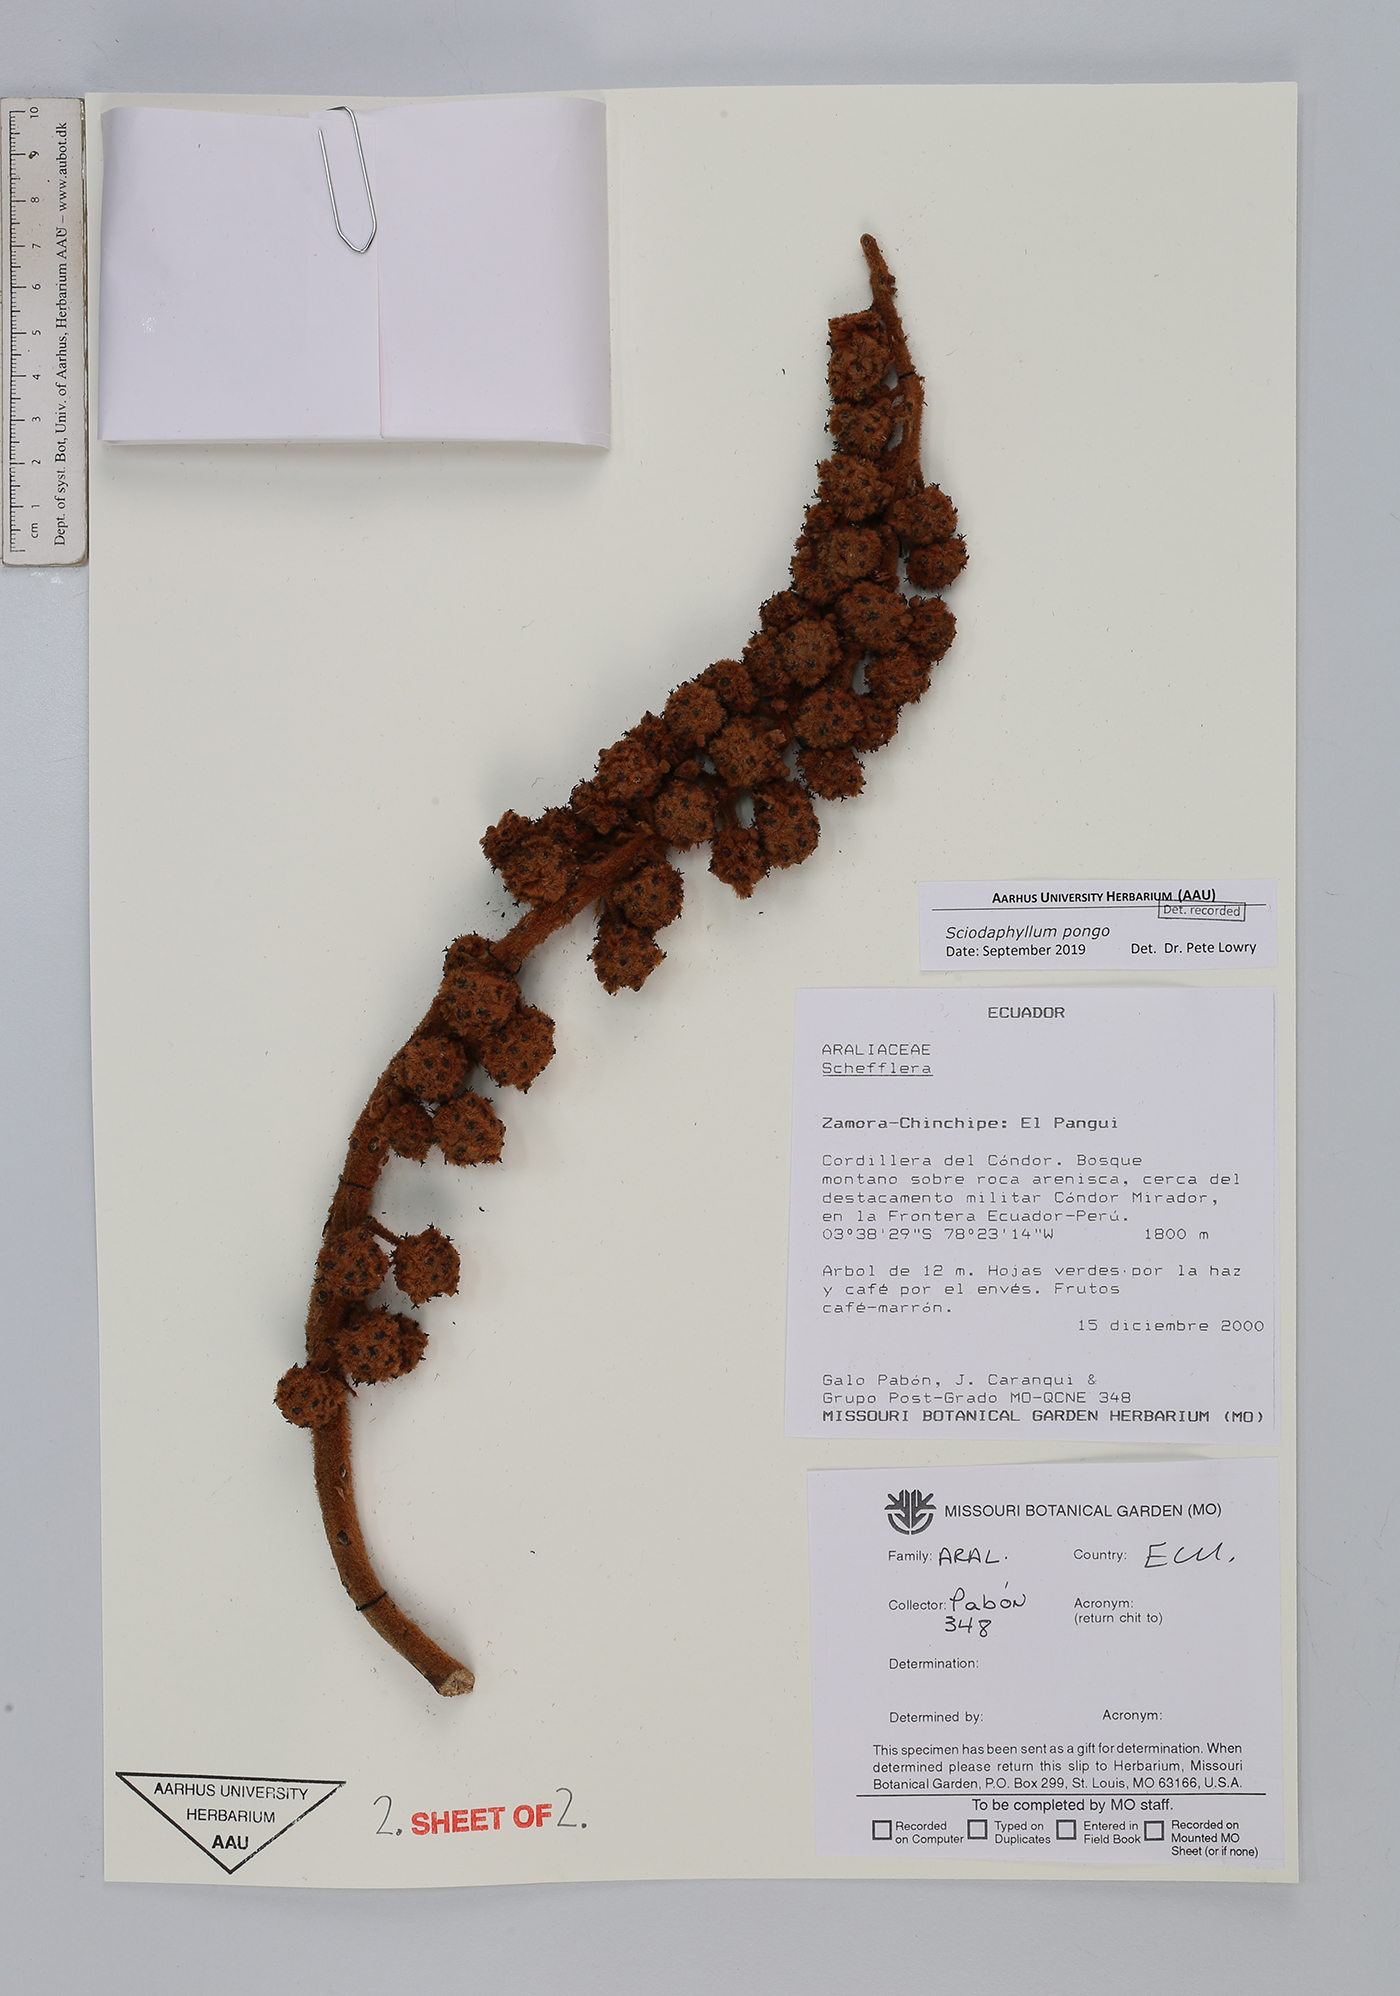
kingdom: Plantae
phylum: Tracheophyta
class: Magnoliopsida
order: Apiales
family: Araliaceae
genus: Sciodaphyllum
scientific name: Sciodaphyllum
